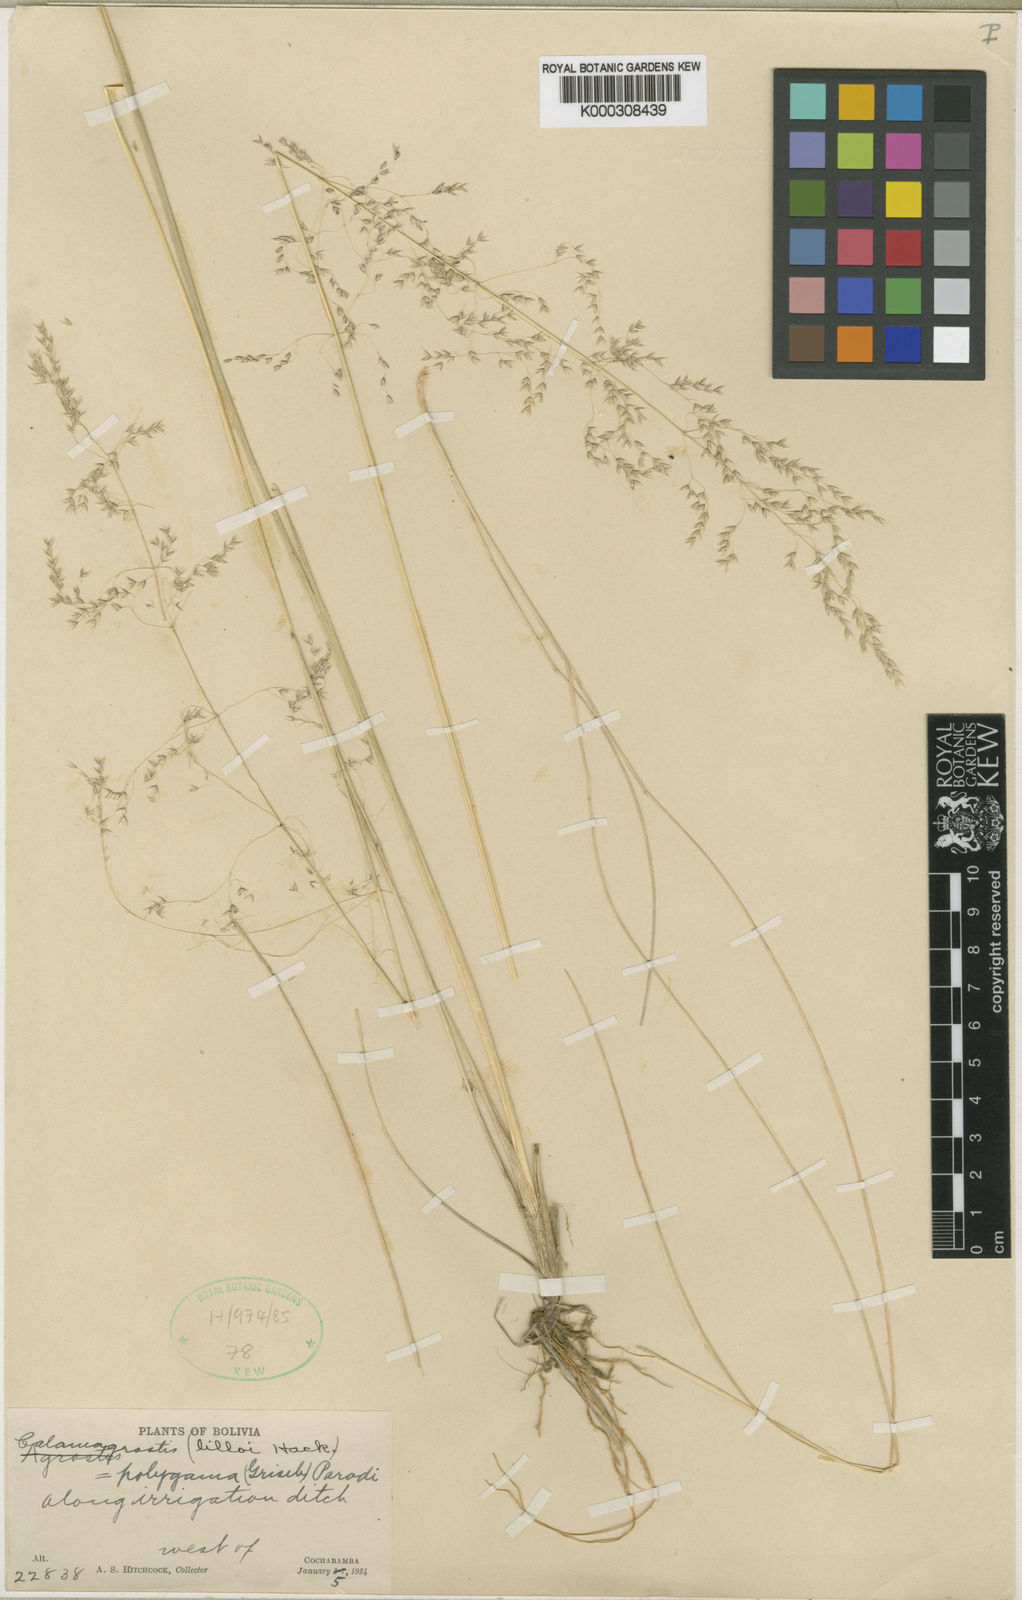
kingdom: Plantae
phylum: Tracheophyta
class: Liliopsida
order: Poales
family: Poaceae
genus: Cinnagrostis
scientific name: Cinnagrostis polygama
